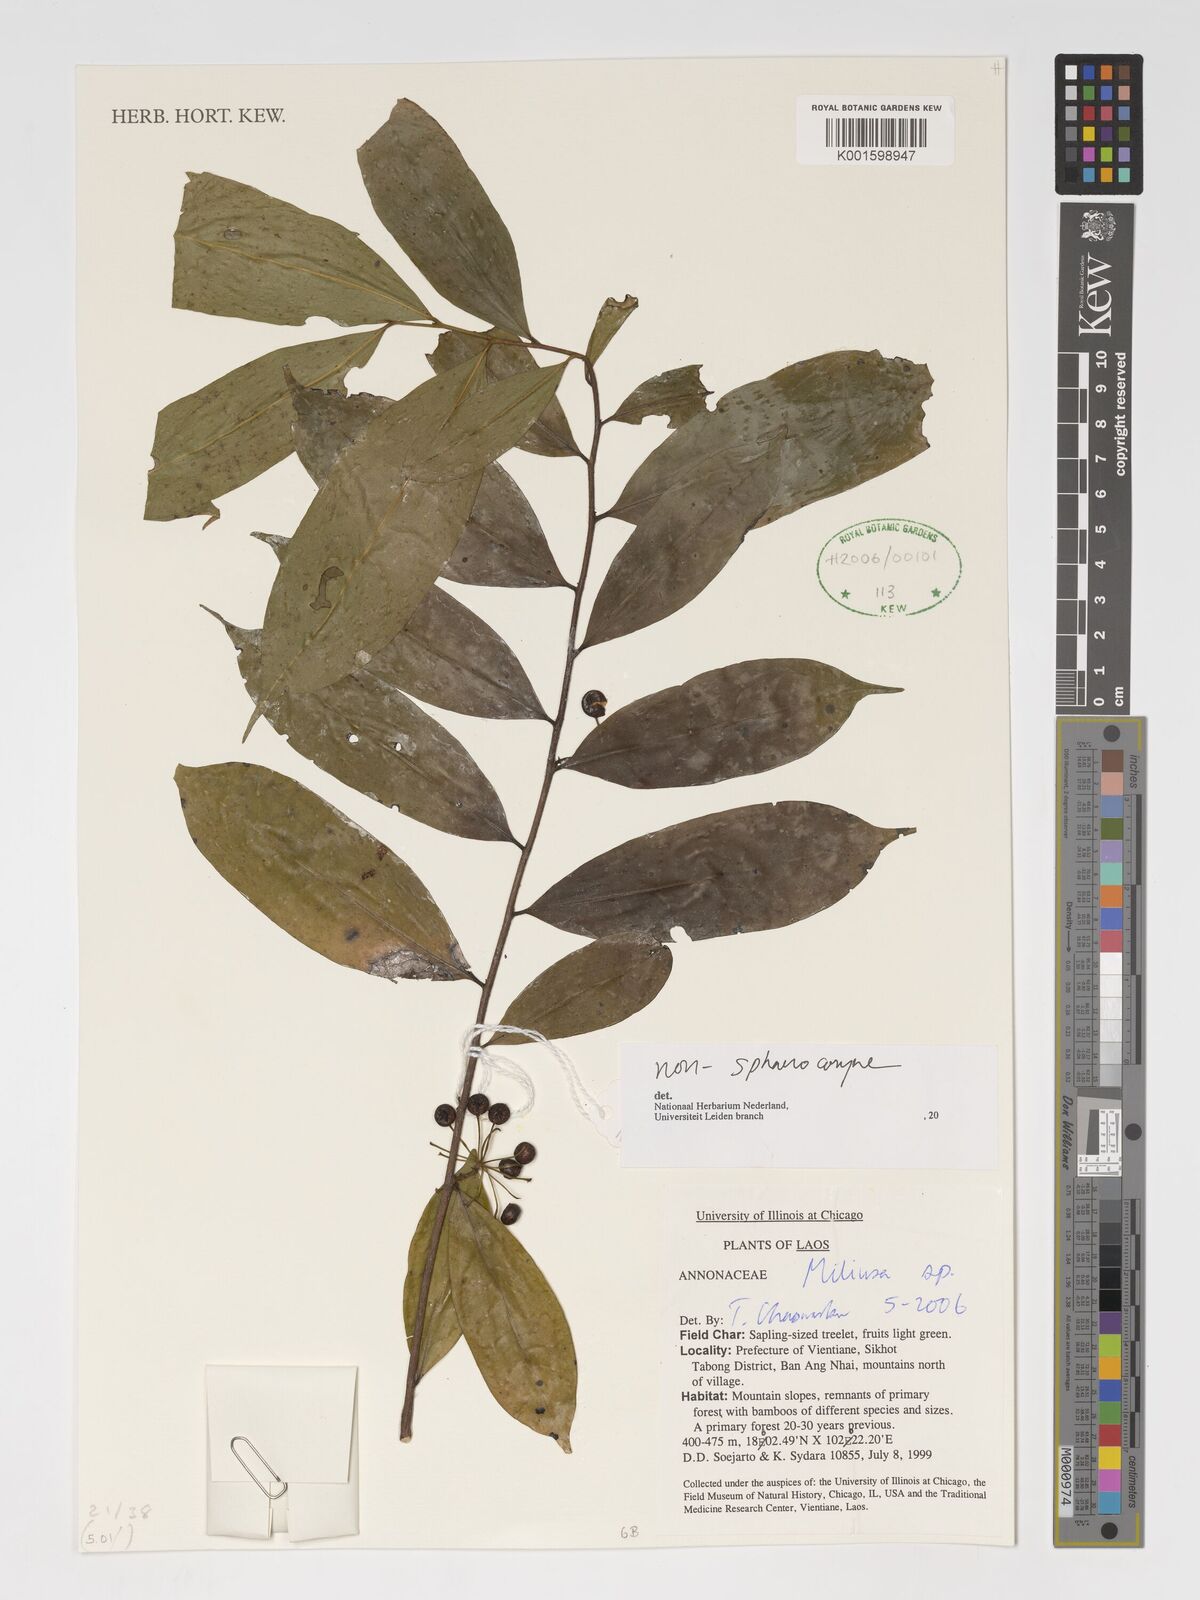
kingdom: Plantae
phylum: Tracheophyta
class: Magnoliopsida
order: Magnoliales
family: Annonaceae
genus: Miliusa
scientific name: Miliusa
